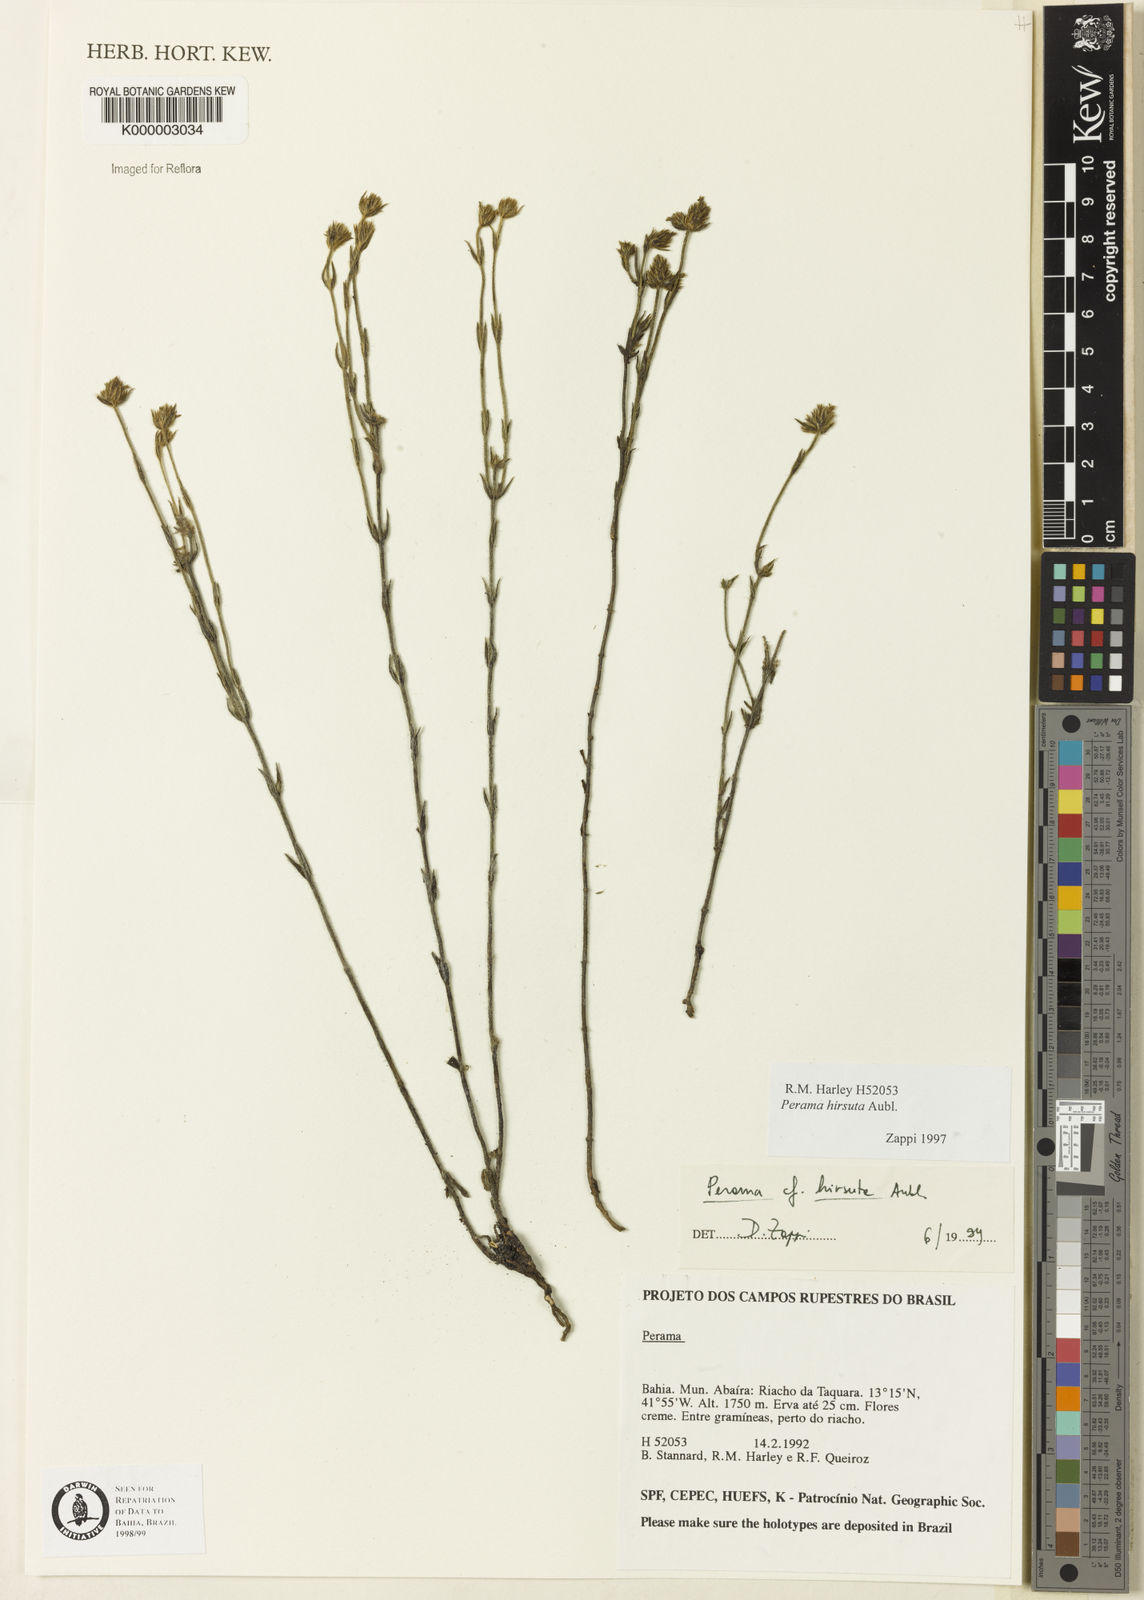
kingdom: Plantae
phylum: Tracheophyta
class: Magnoliopsida
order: Gentianales
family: Rubiaceae
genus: Perama
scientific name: Perama hirsuta
